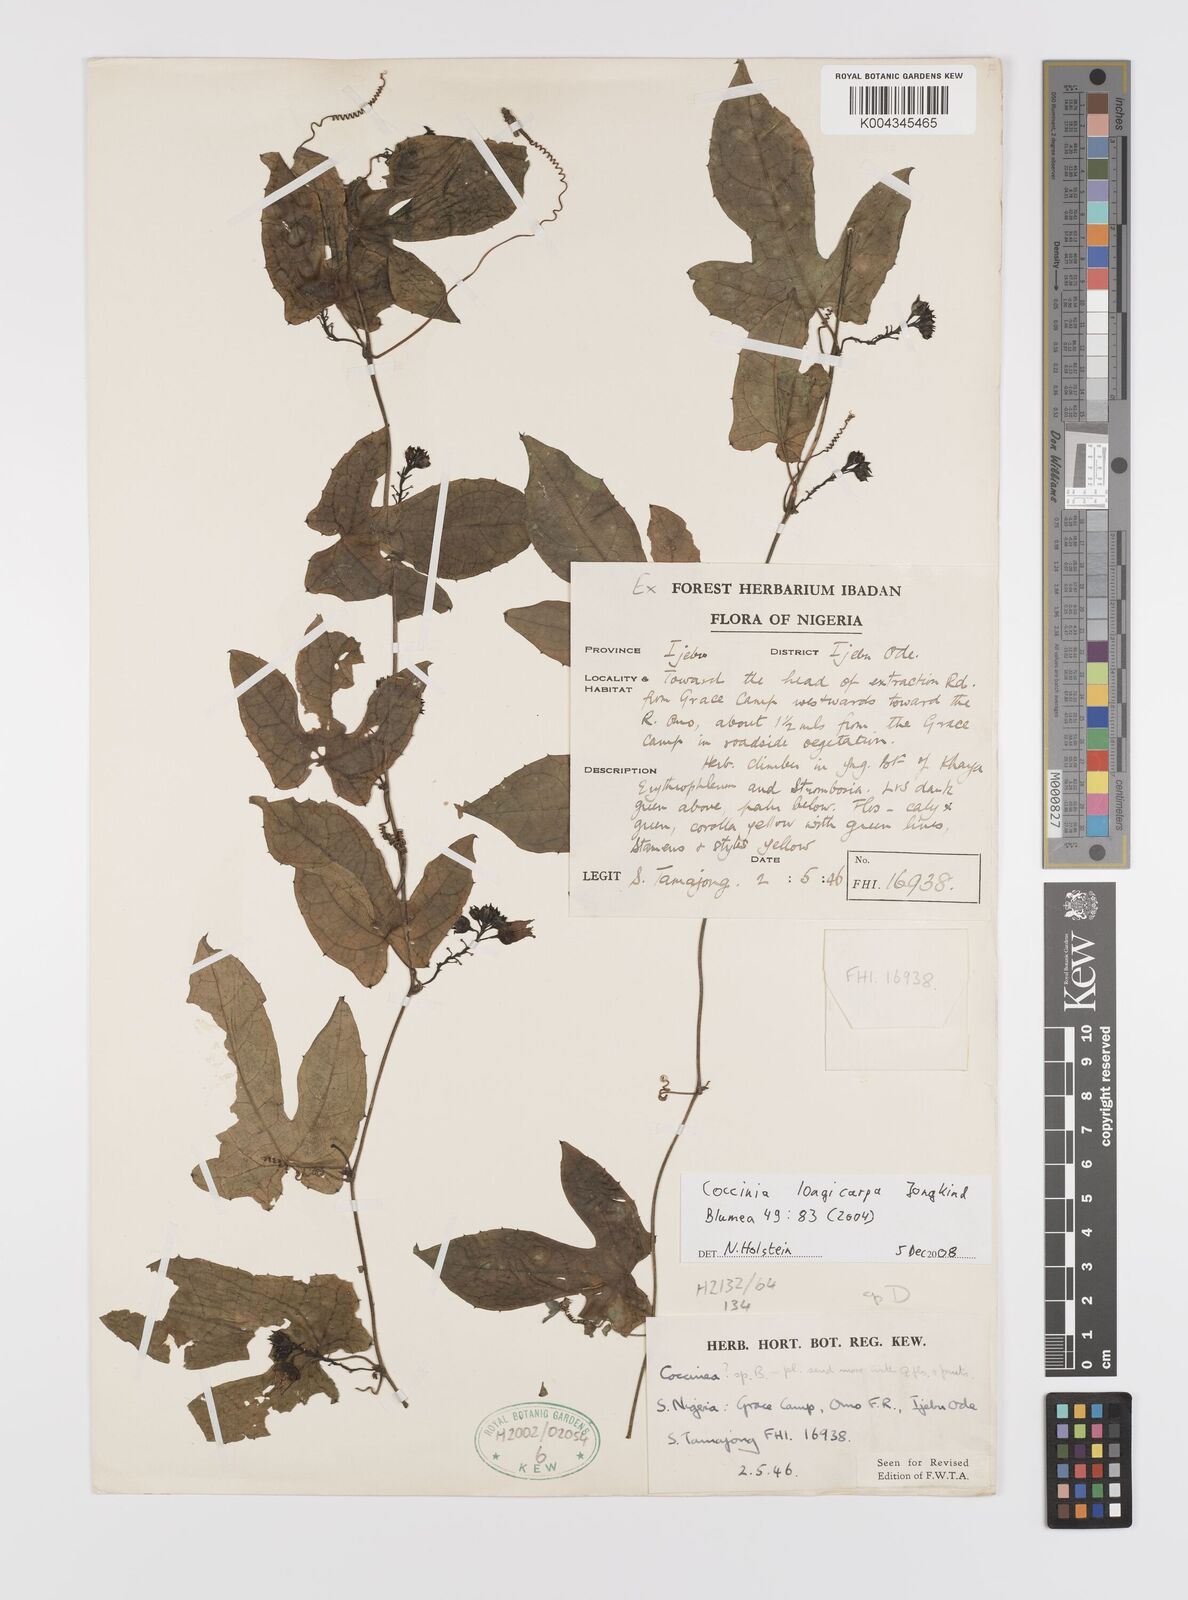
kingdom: Plantae
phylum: Tracheophyta
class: Magnoliopsida
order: Cucurbitales
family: Cucurbitaceae
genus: Coccinia
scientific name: Coccinia longicarpa
